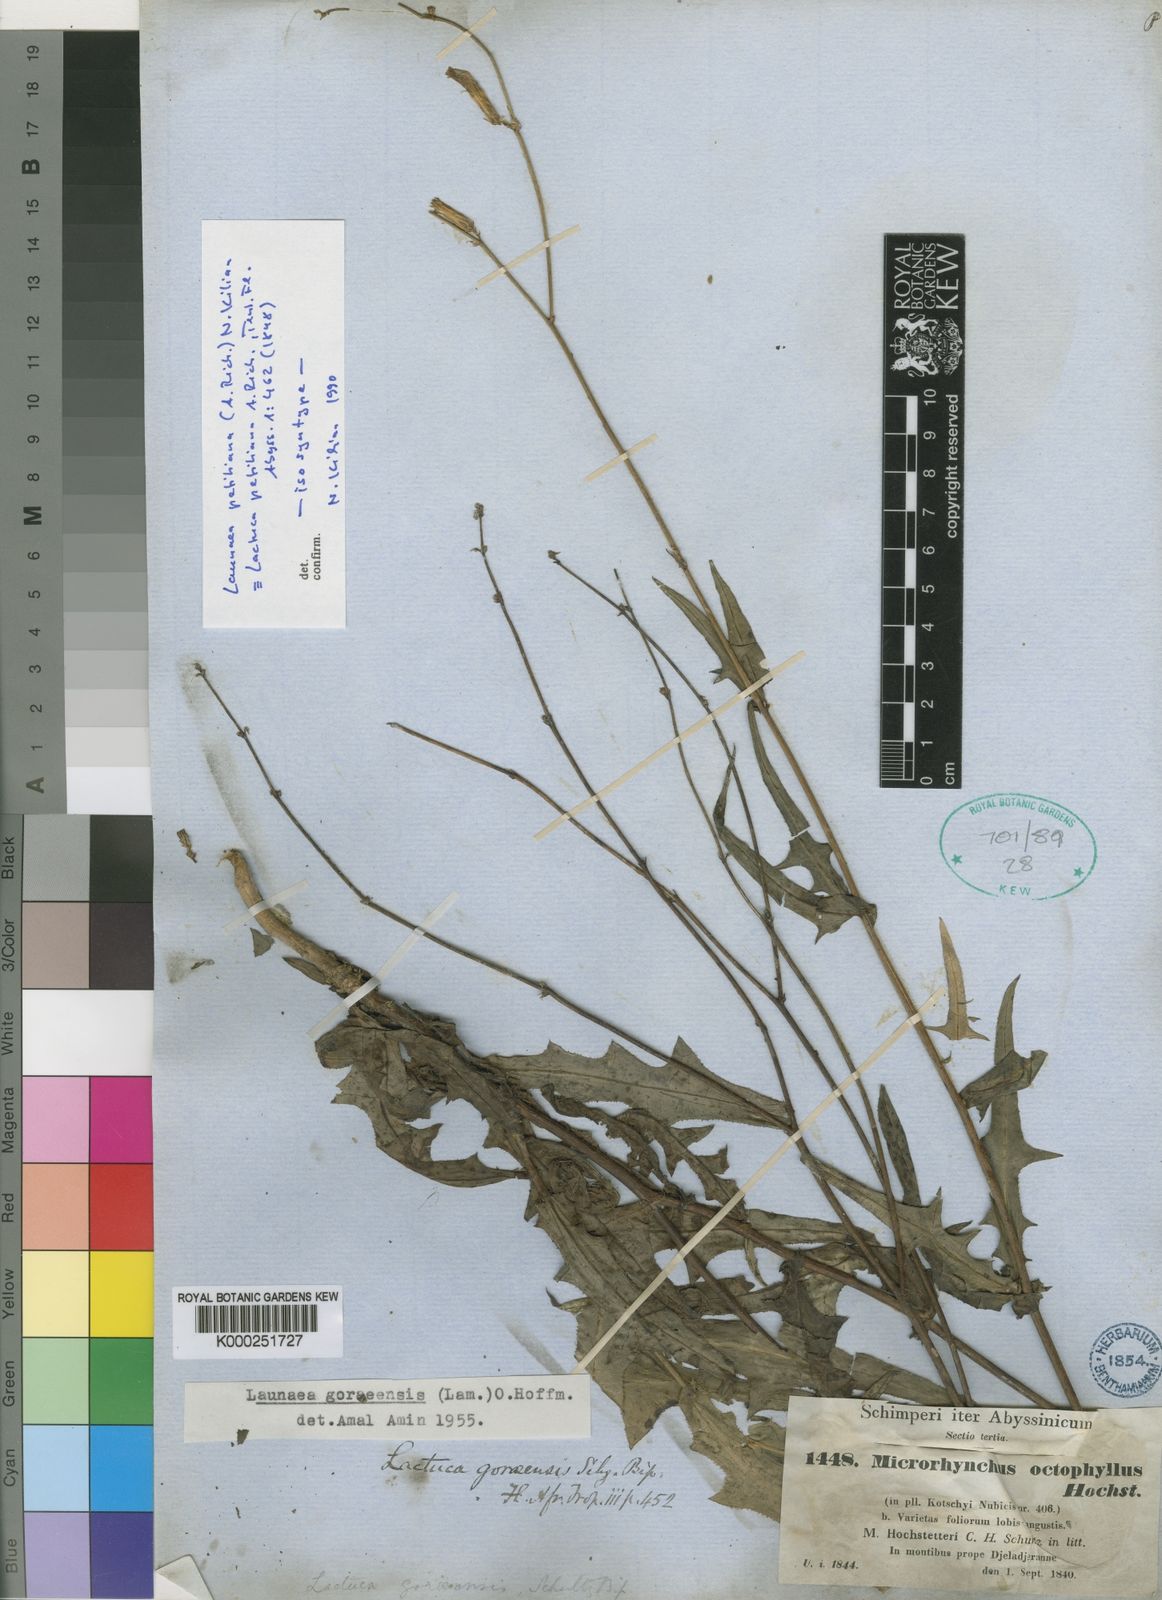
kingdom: Plantae
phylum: Tracheophyta
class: Magnoliopsida
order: Asterales
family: Asteraceae
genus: Launaea
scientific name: Launaea petitiana
